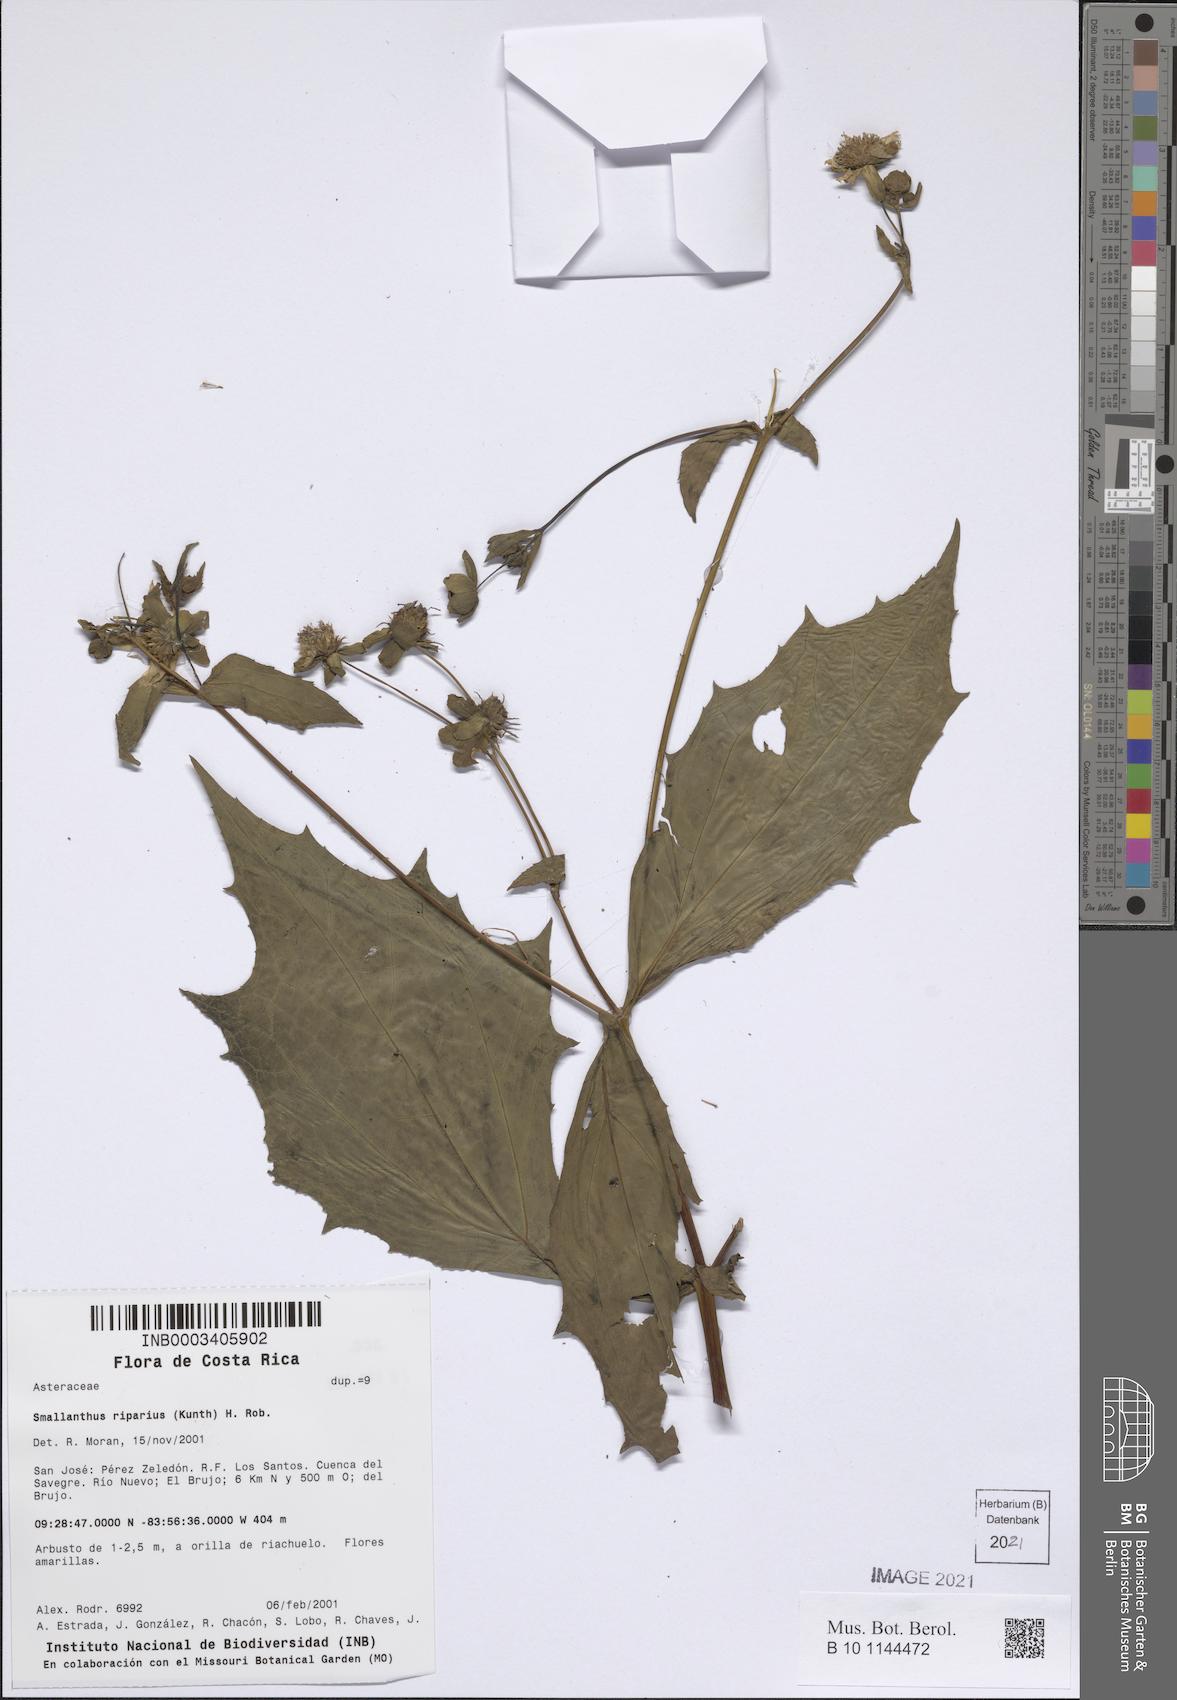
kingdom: Plantae
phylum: Tracheophyta
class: Magnoliopsida
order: Asterales
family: Asteraceae
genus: Smallanthus
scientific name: Smallanthus riparius
